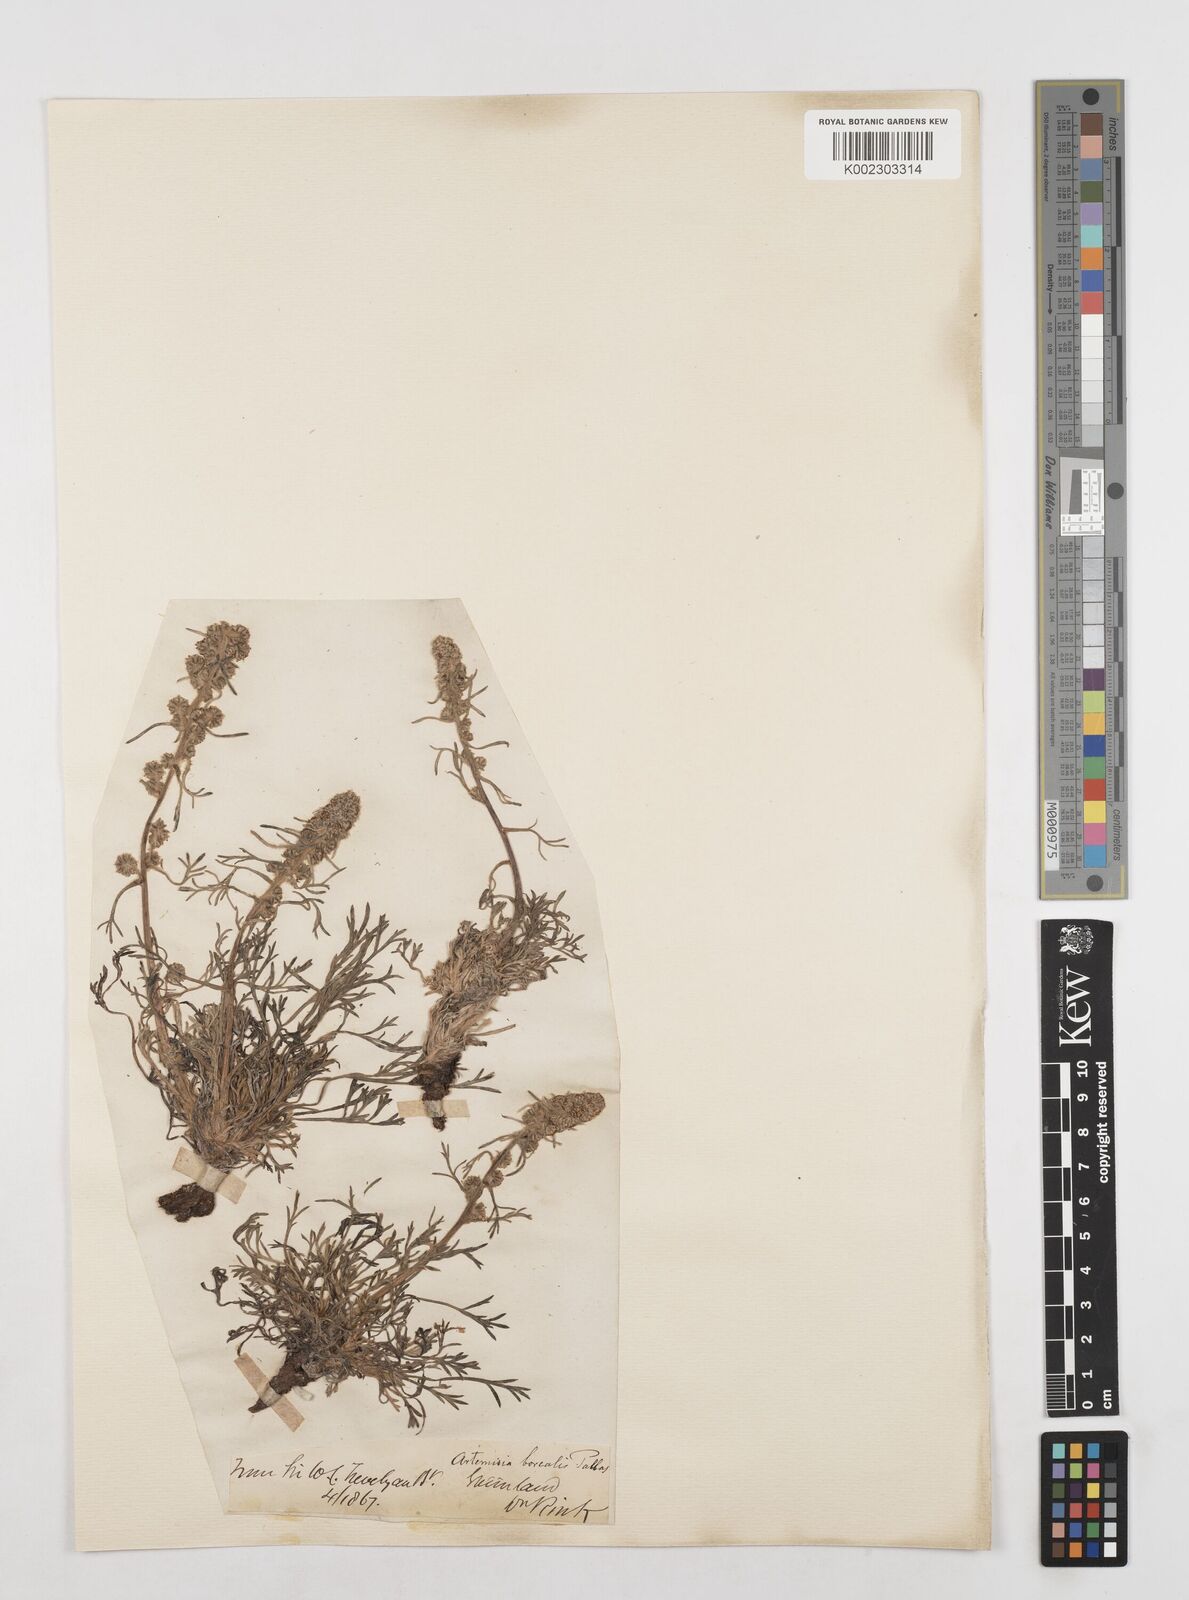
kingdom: Plantae
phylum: Tracheophyta
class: Magnoliopsida
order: Asterales
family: Asteraceae
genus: Artemisia
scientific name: Artemisia borealis
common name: Boreal sage
